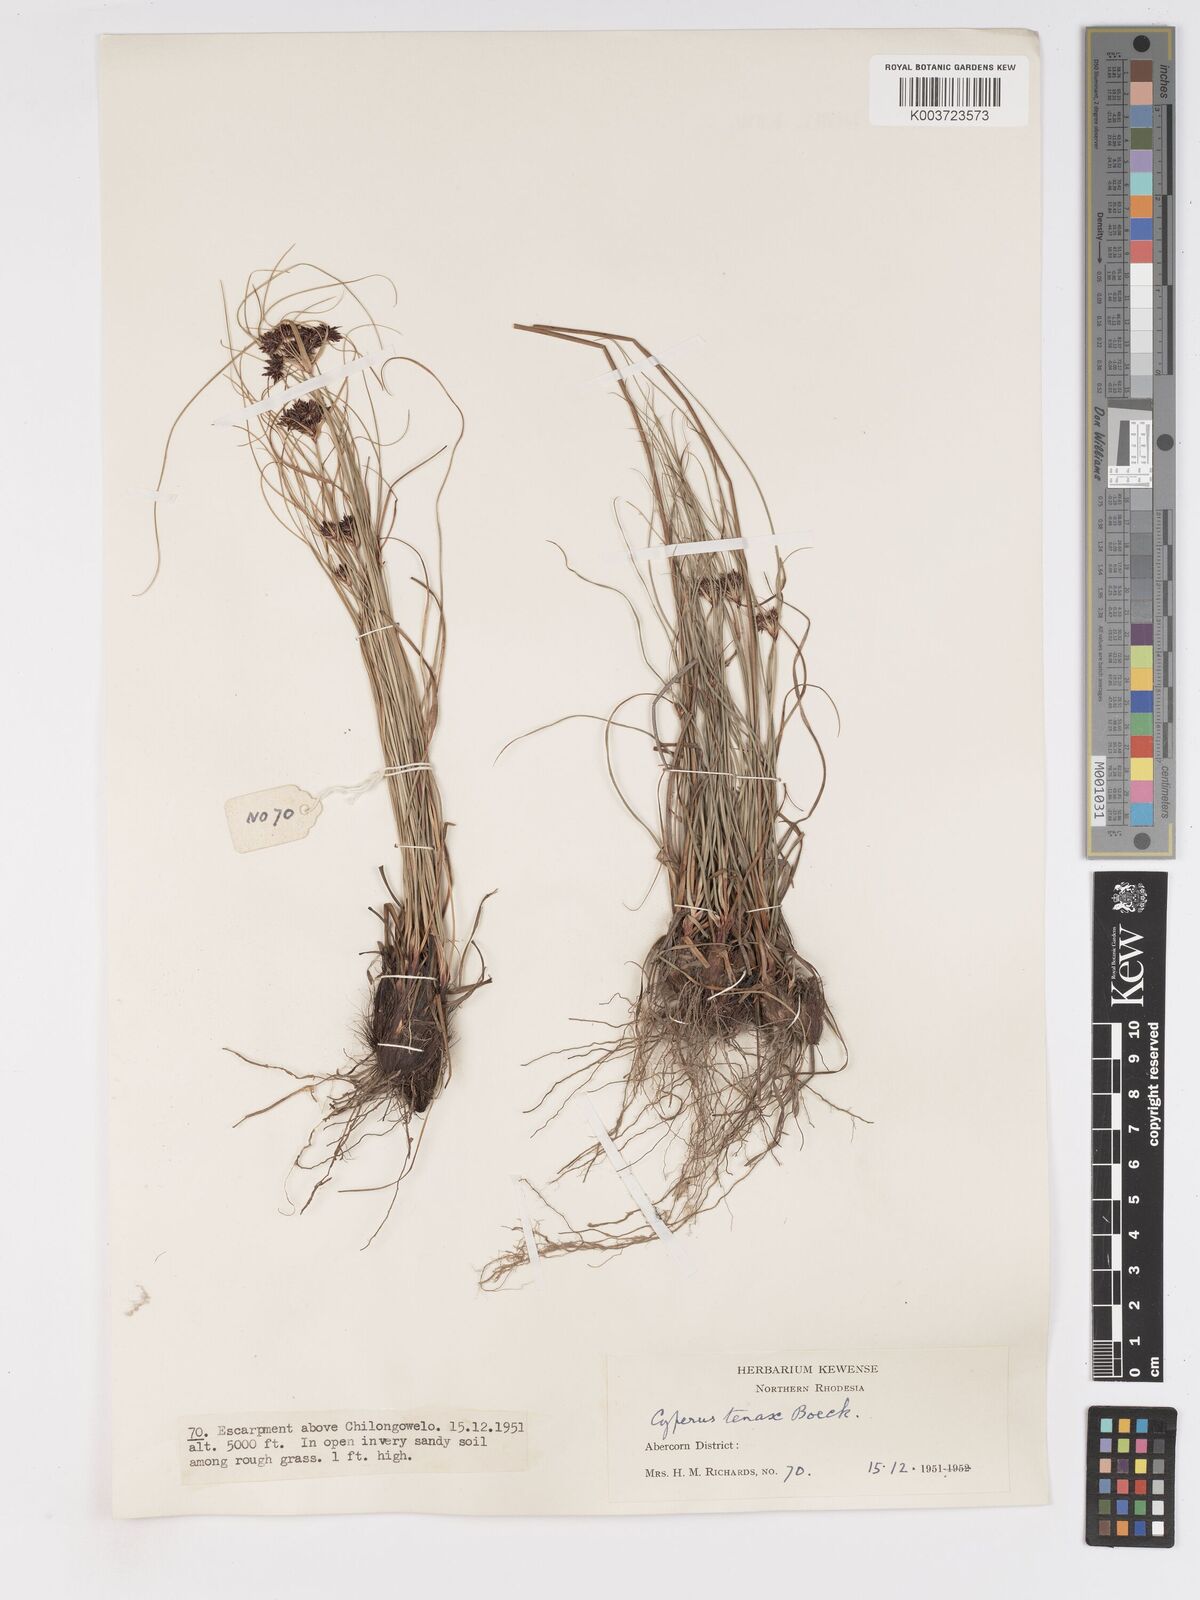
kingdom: Plantae
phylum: Tracheophyta
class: Liliopsida
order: Poales
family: Cyperaceae
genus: Cyperus
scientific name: Cyperus tenax
